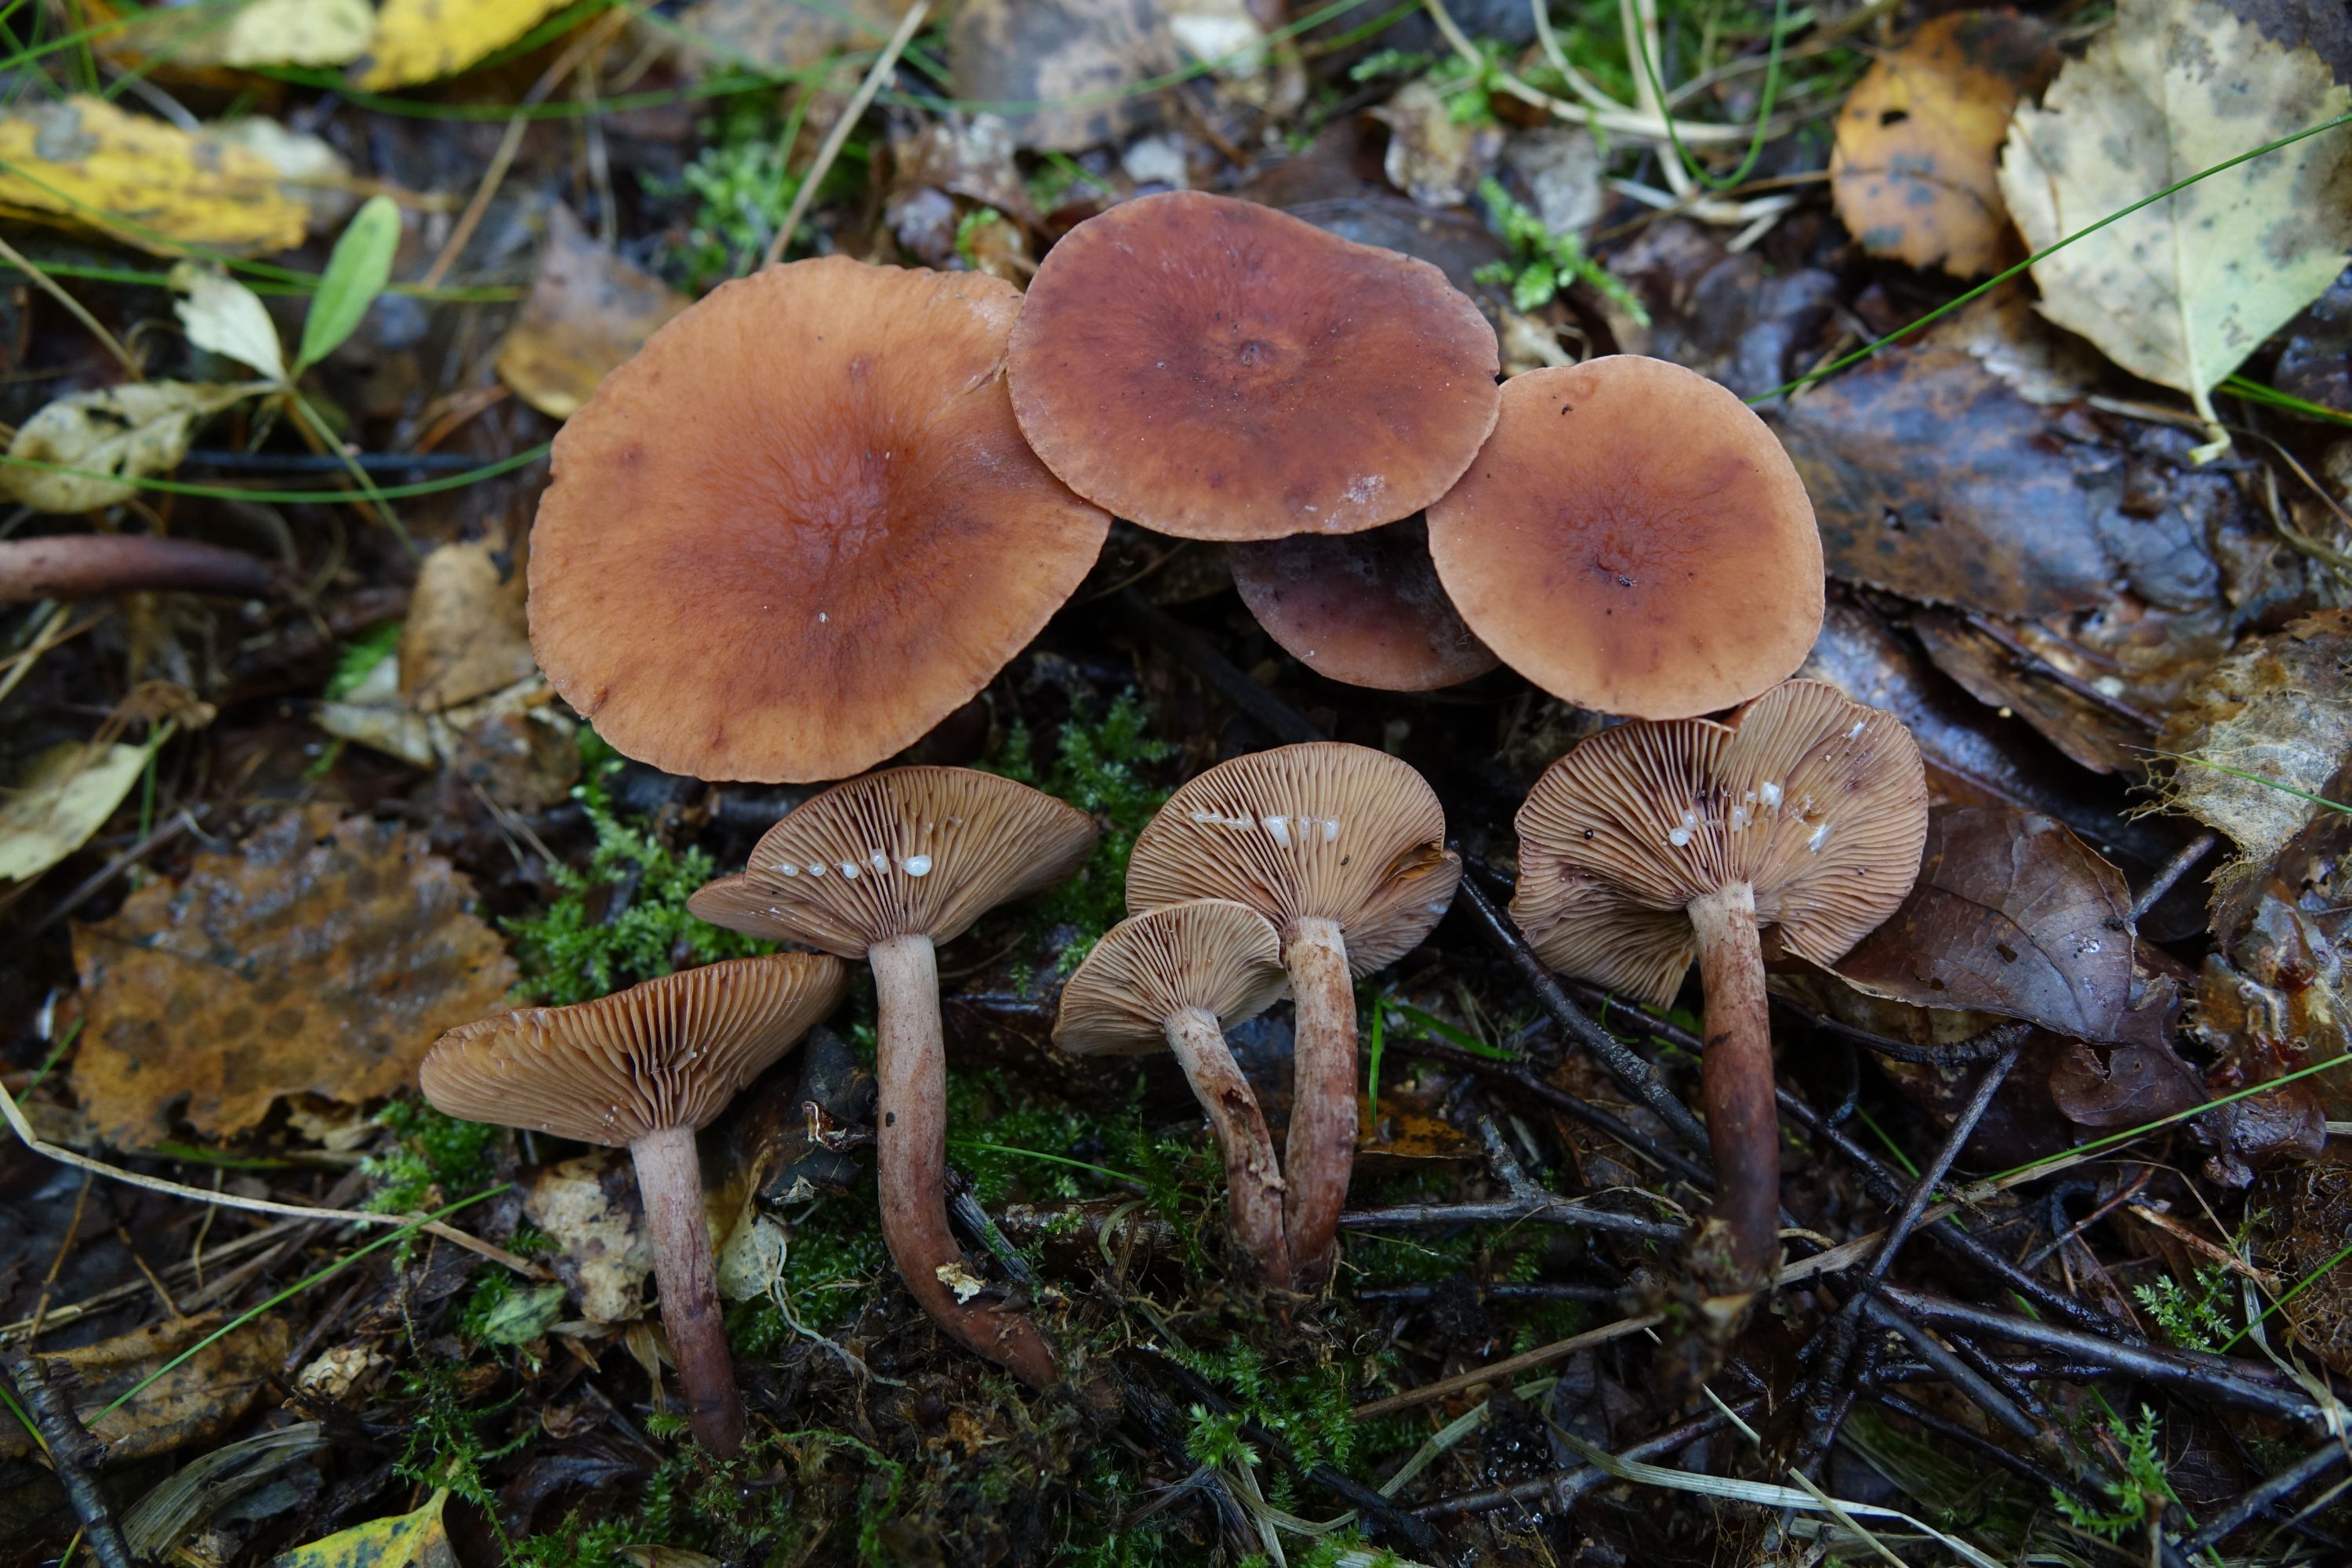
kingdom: Fungi
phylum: Basidiomycota
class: Agaricomycetes
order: Russulales
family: Russulaceae
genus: Lactarius
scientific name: Lactarius camphoratus
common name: Curry milkcap
